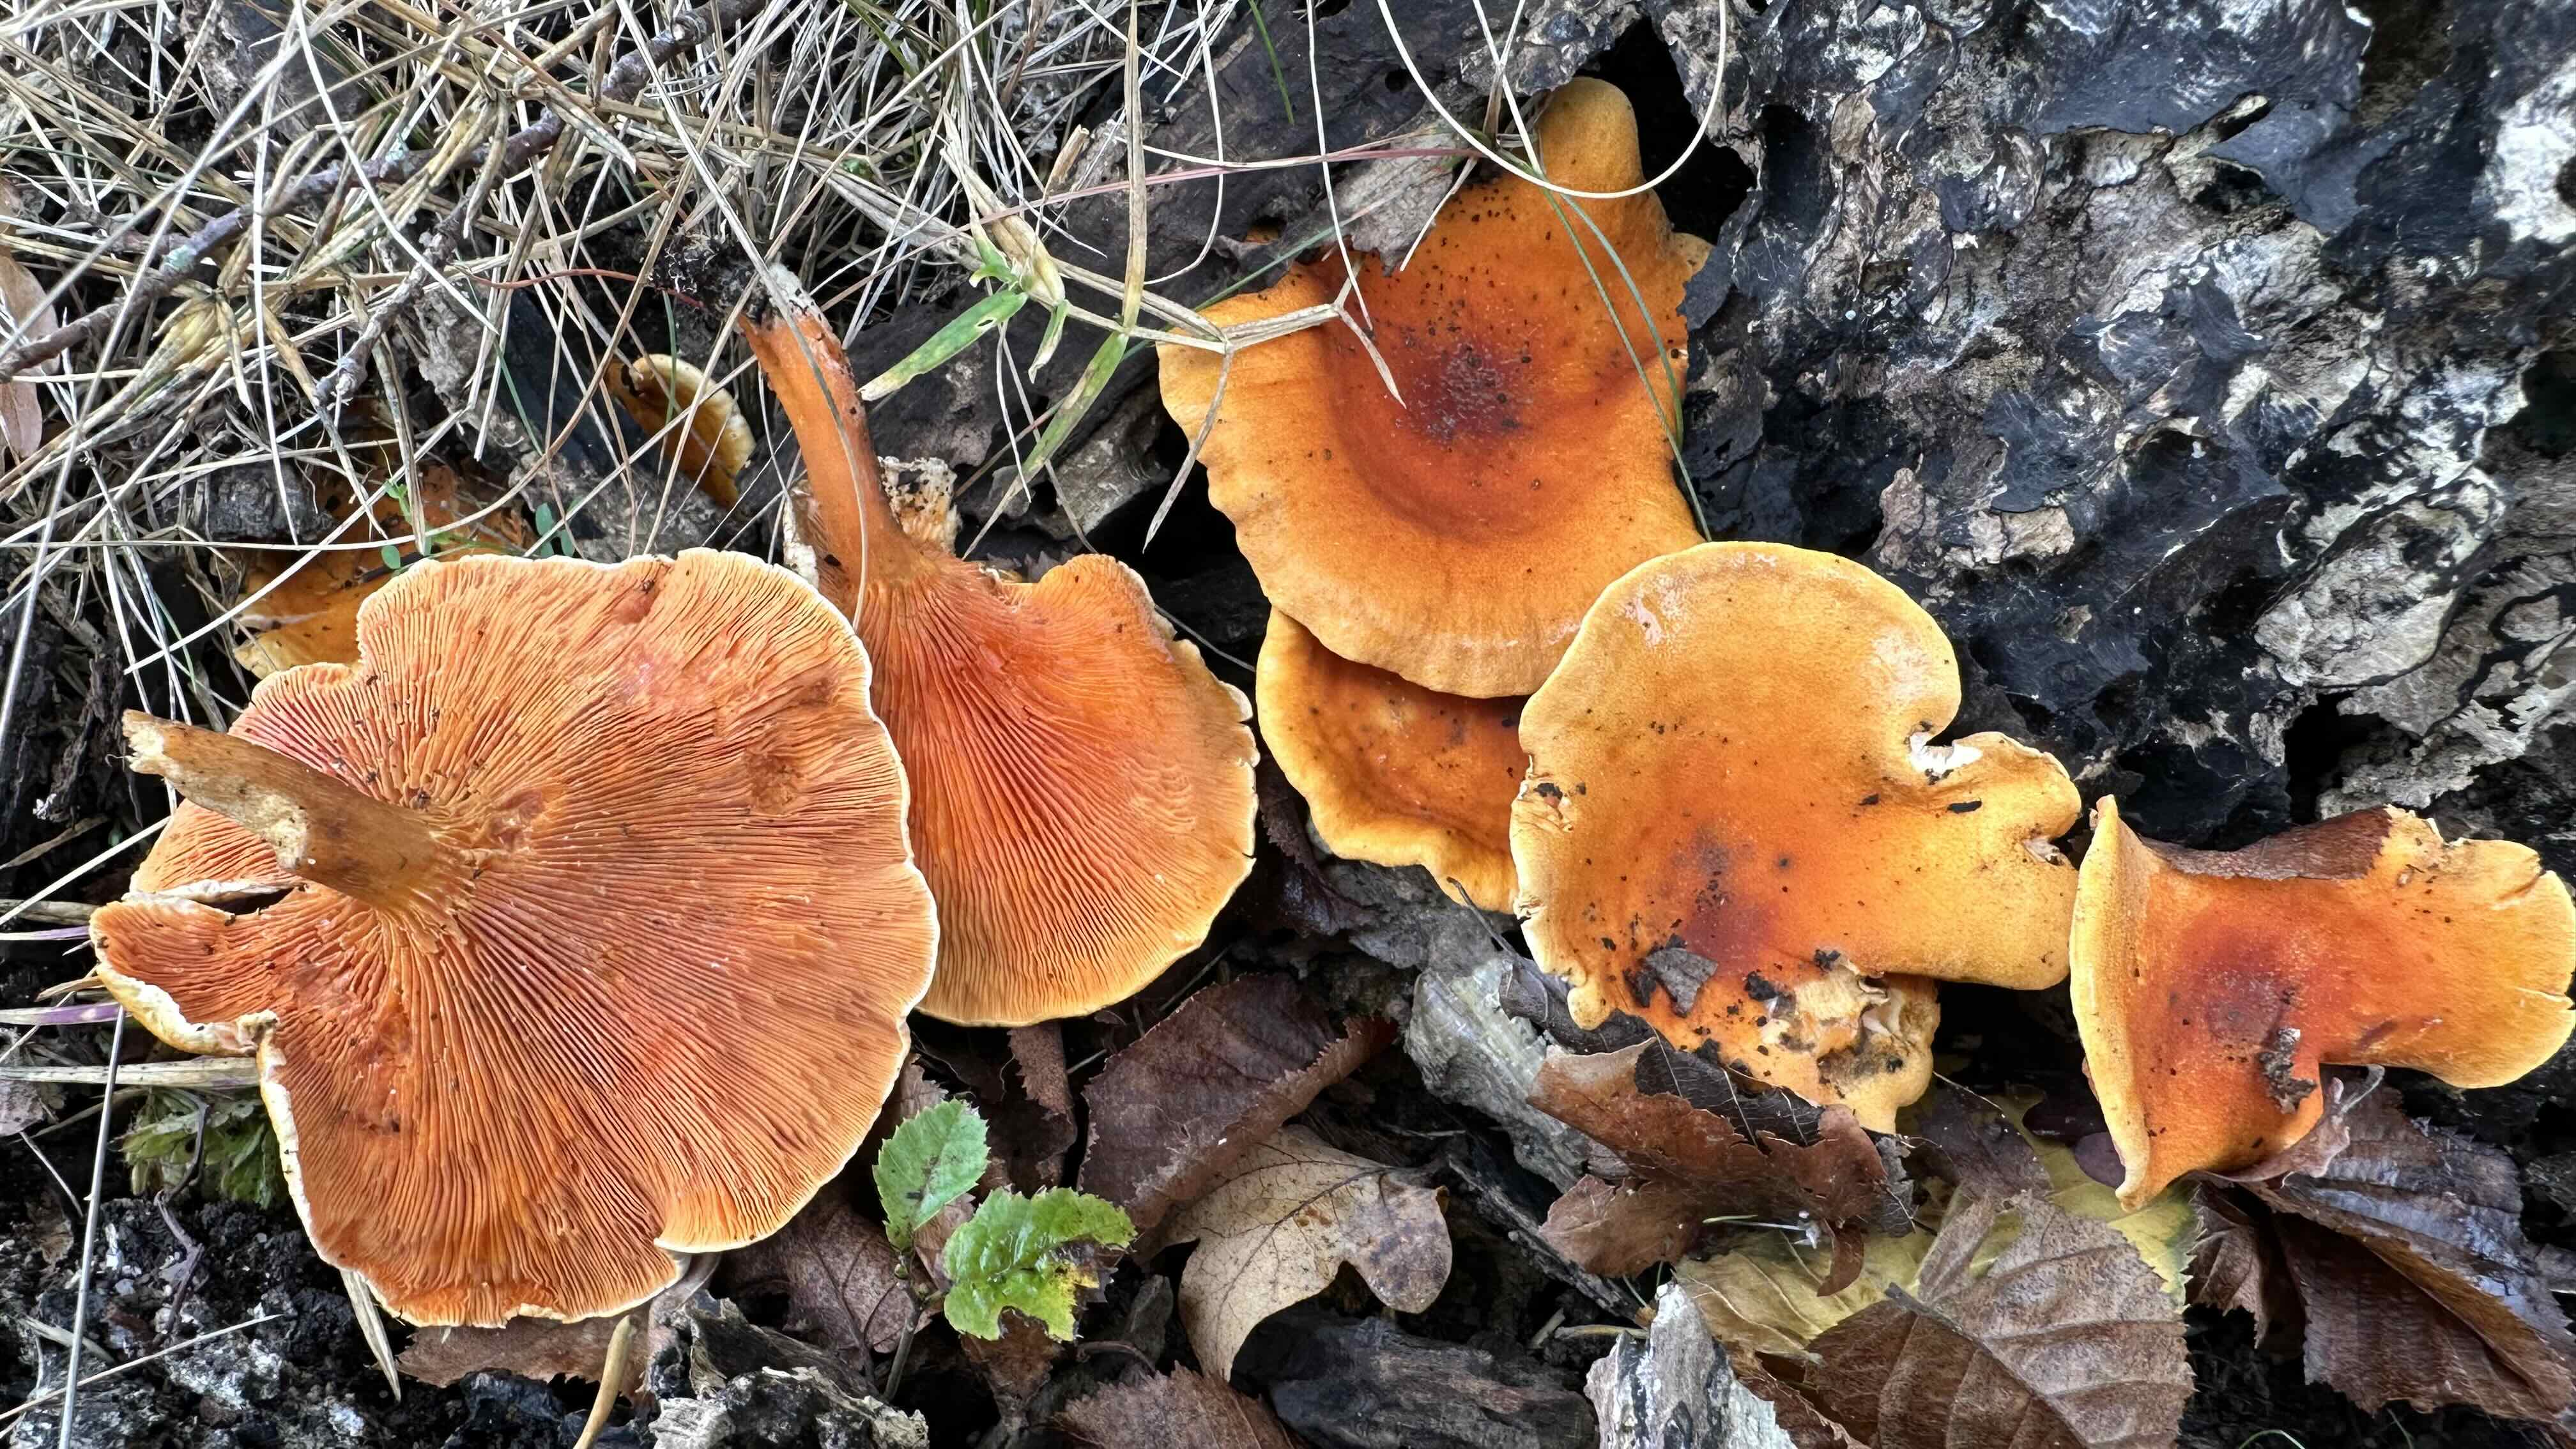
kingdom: Fungi
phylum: Basidiomycota
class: Agaricomycetes
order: Boletales
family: Hygrophoropsidaceae
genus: Hygrophoropsis
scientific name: Hygrophoropsis aurantiaca
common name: almindelig orangekantarel
